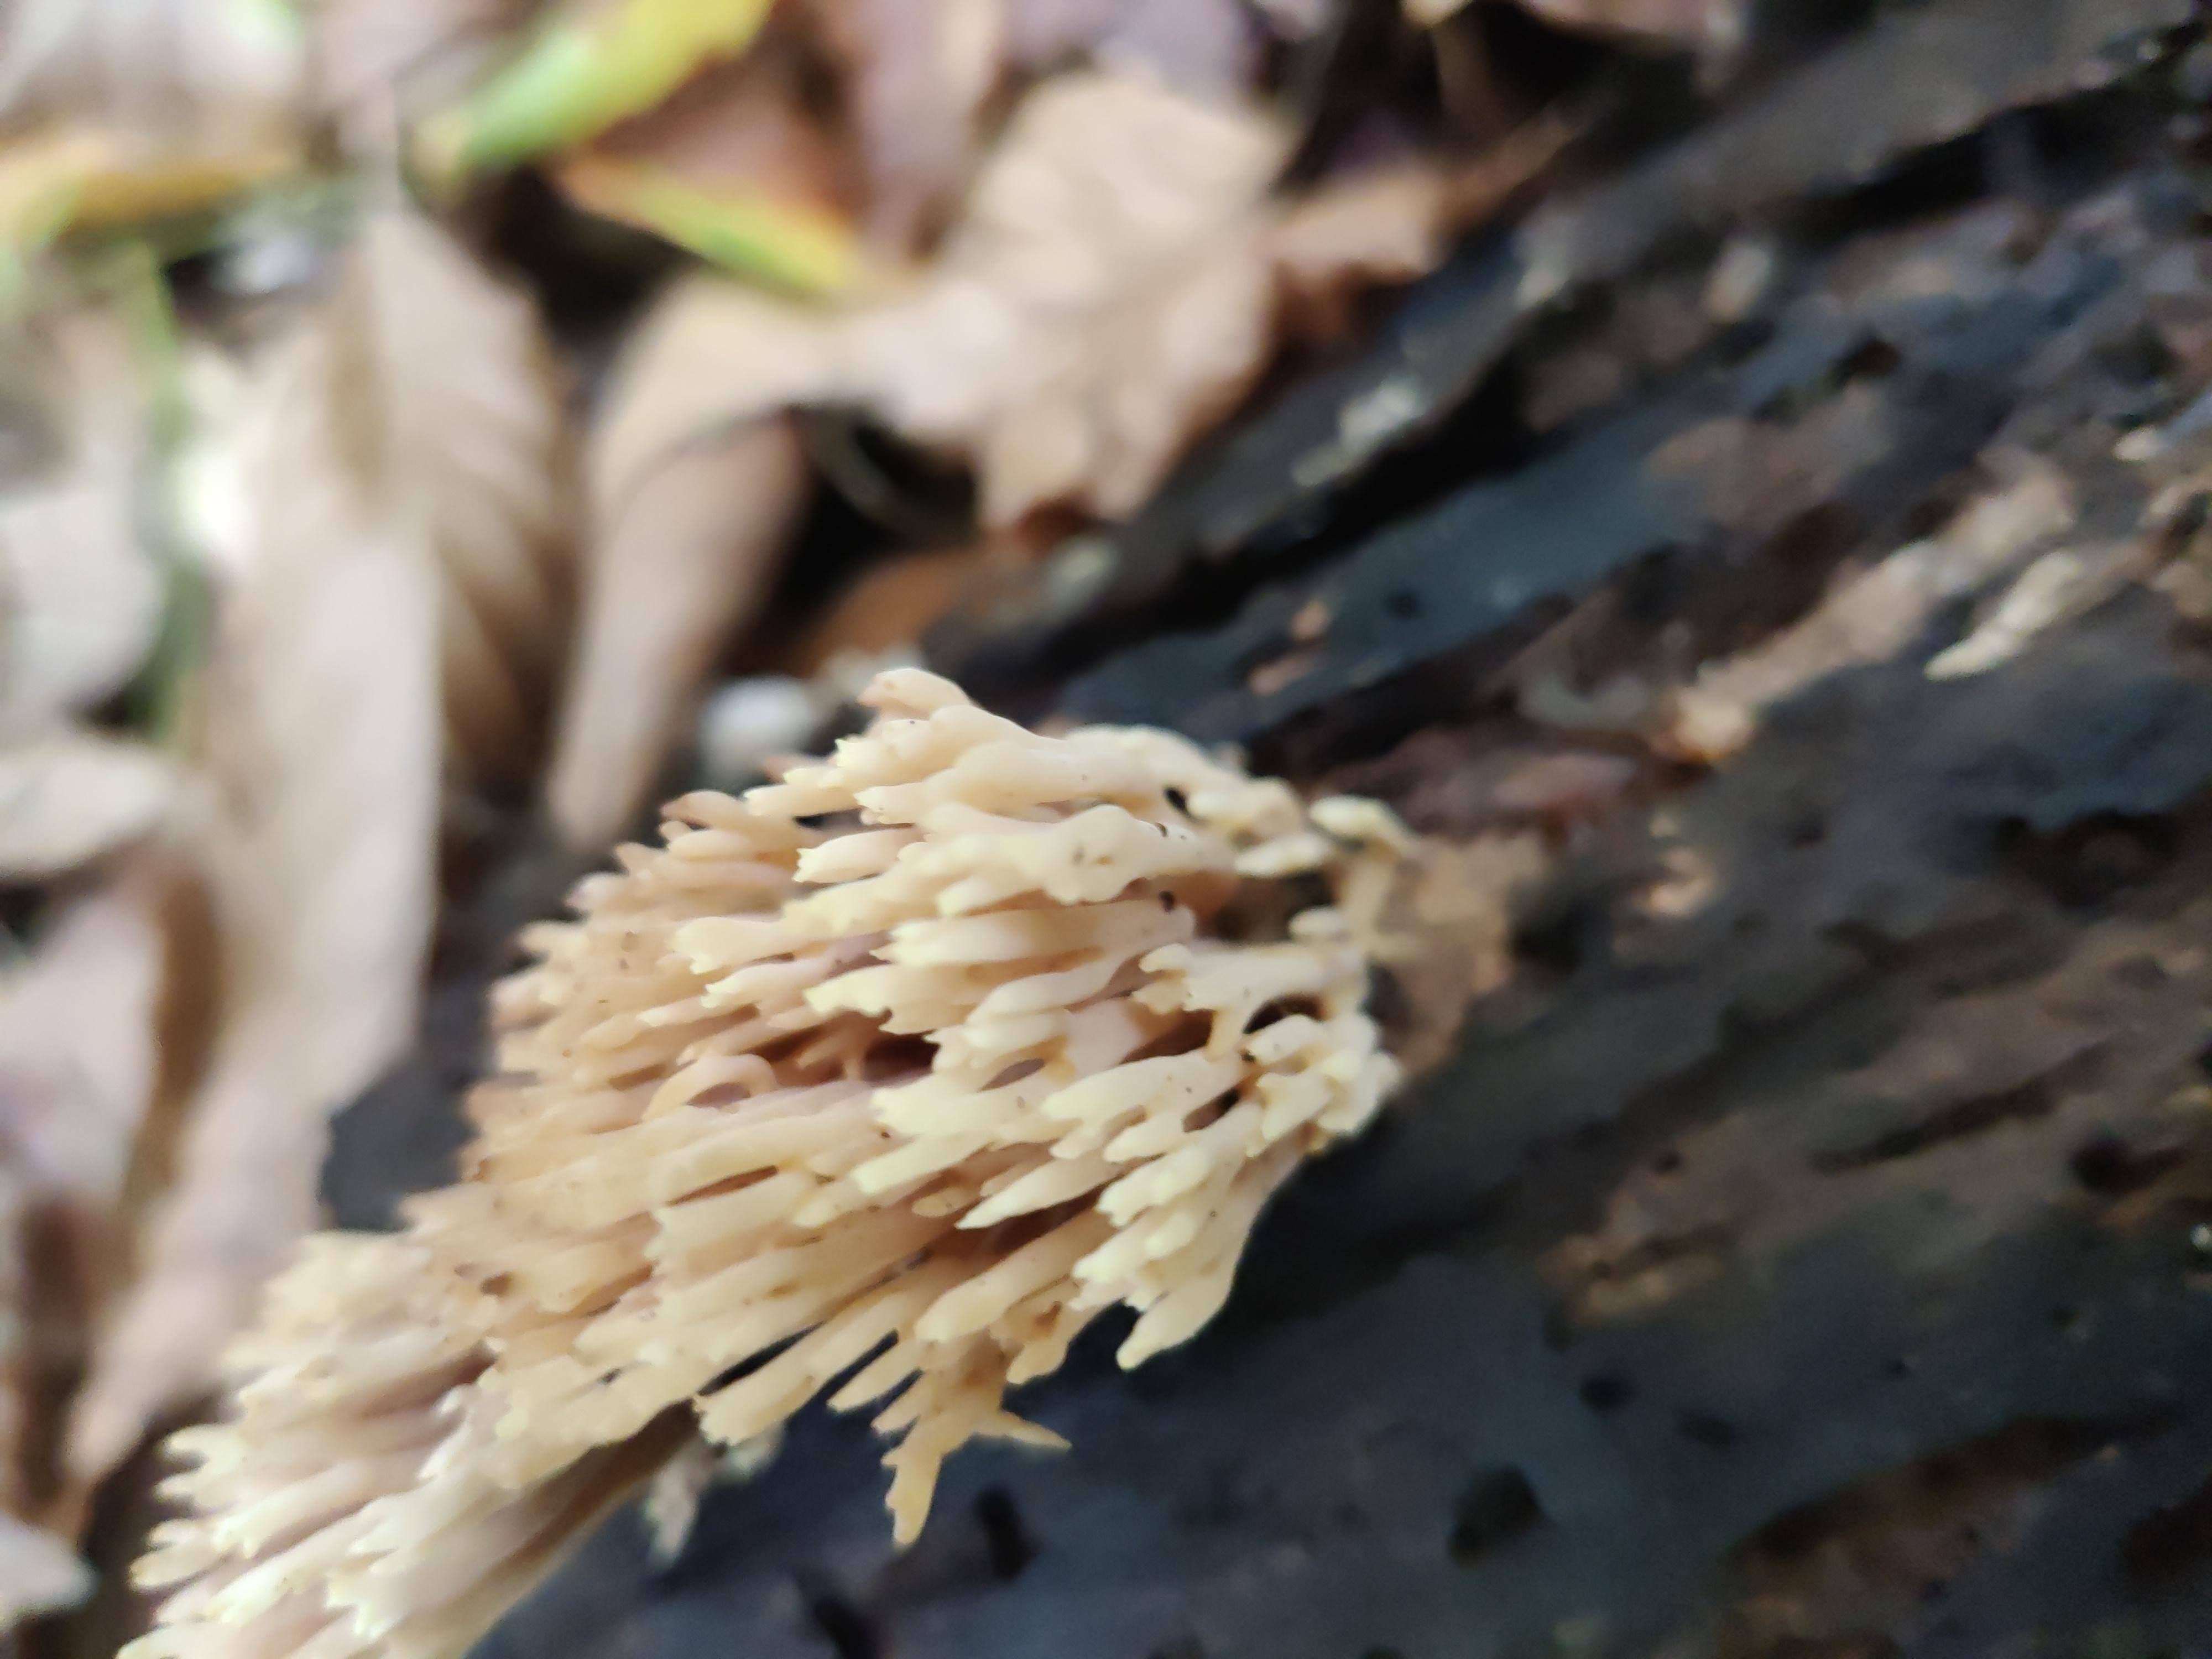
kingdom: Fungi
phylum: Basidiomycota
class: Agaricomycetes
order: Gomphales
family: Gomphaceae
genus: Ramaria
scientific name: Ramaria stricta
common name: rank koralsvamp
